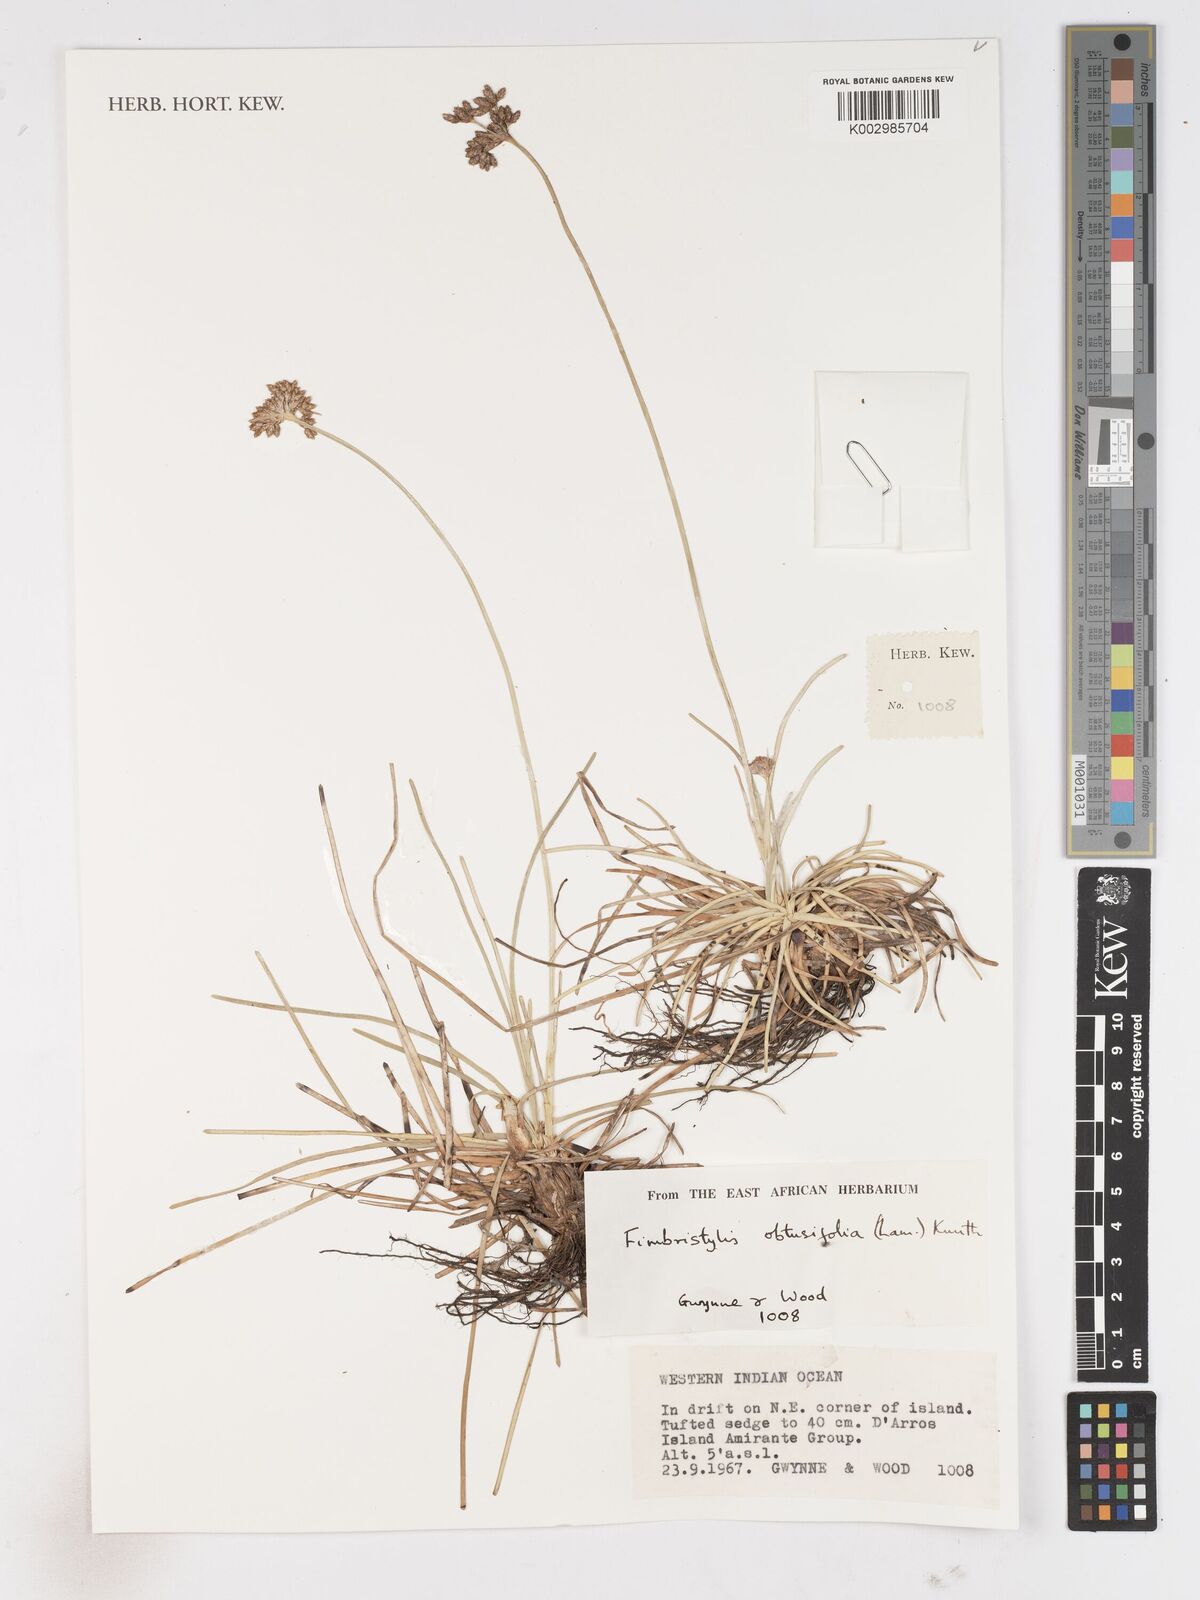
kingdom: Plantae
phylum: Tracheophyta
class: Liliopsida
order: Poales
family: Cyperaceae
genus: Fimbristylis
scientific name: Fimbristylis cymosa
